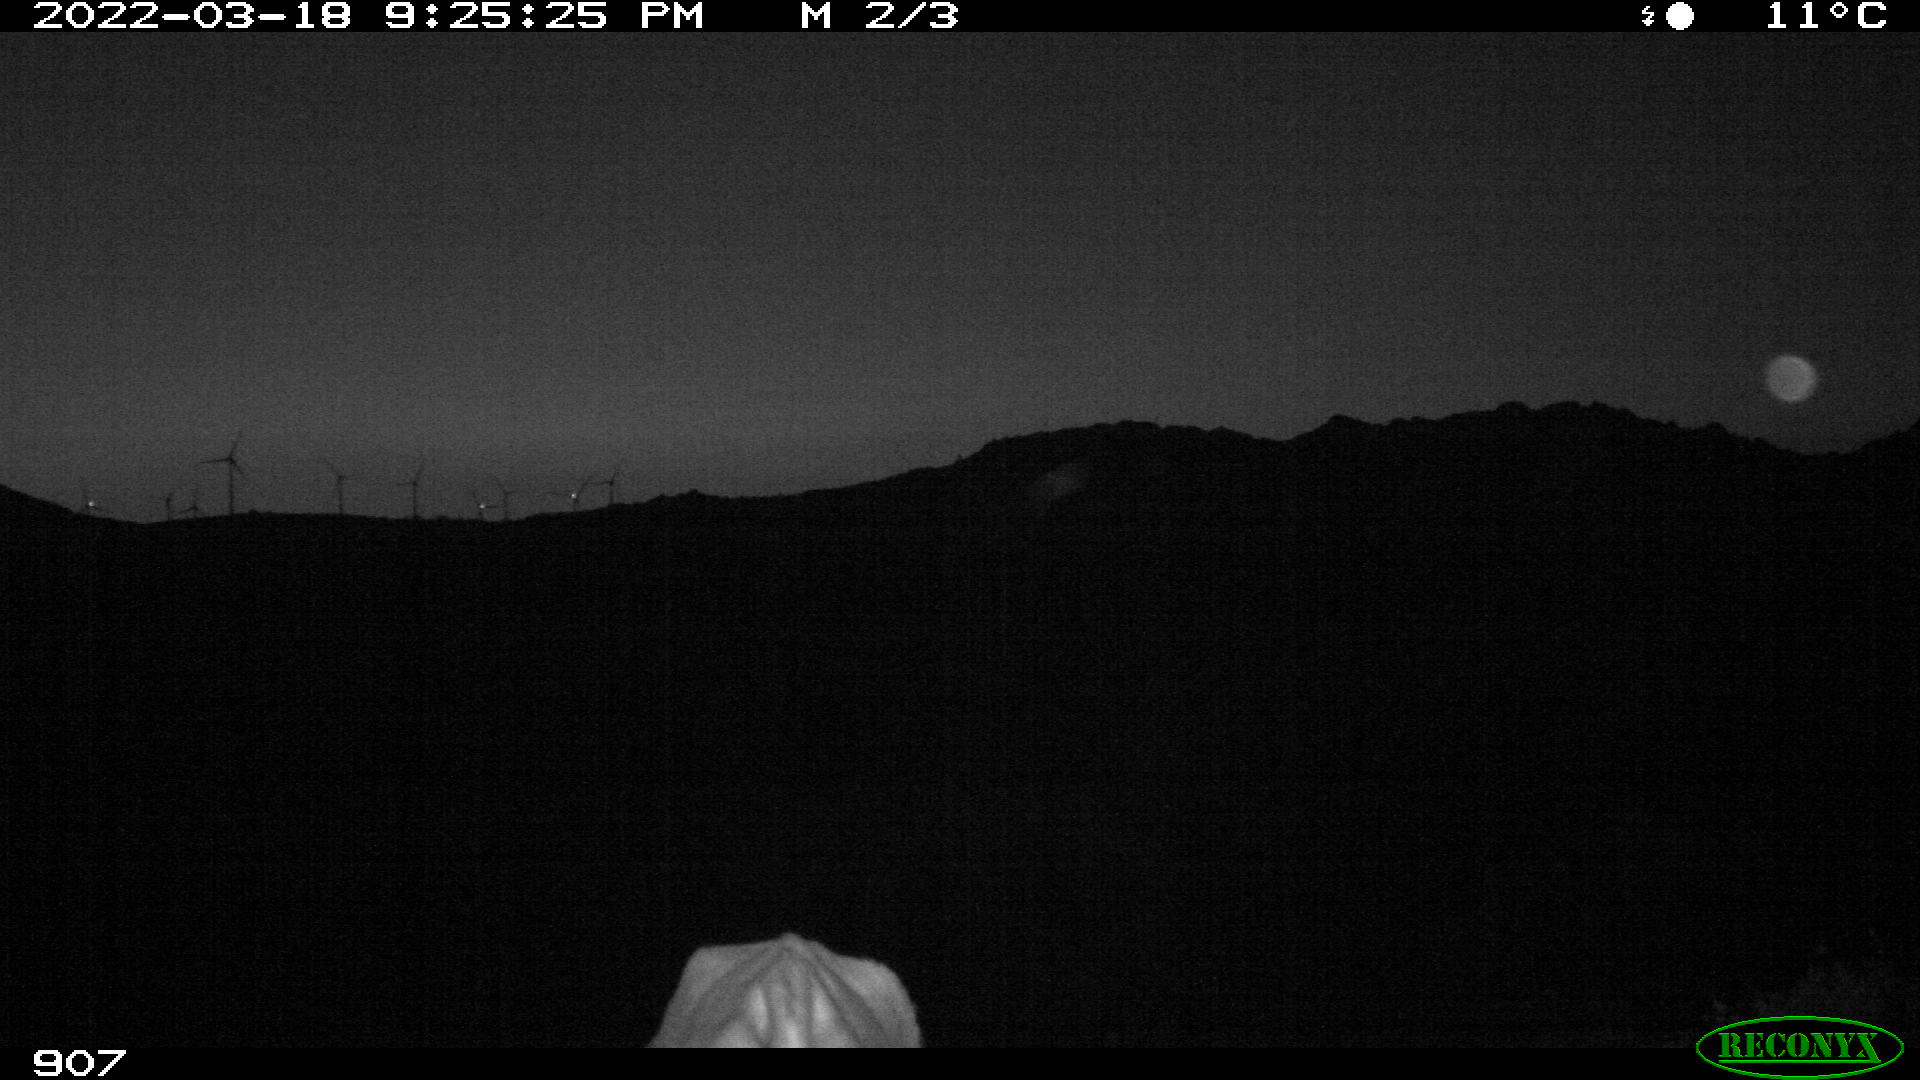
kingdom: Animalia
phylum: Chordata
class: Mammalia
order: Artiodactyla
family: Bovidae
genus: Bos
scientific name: Bos taurus
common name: Domesticated cattle
